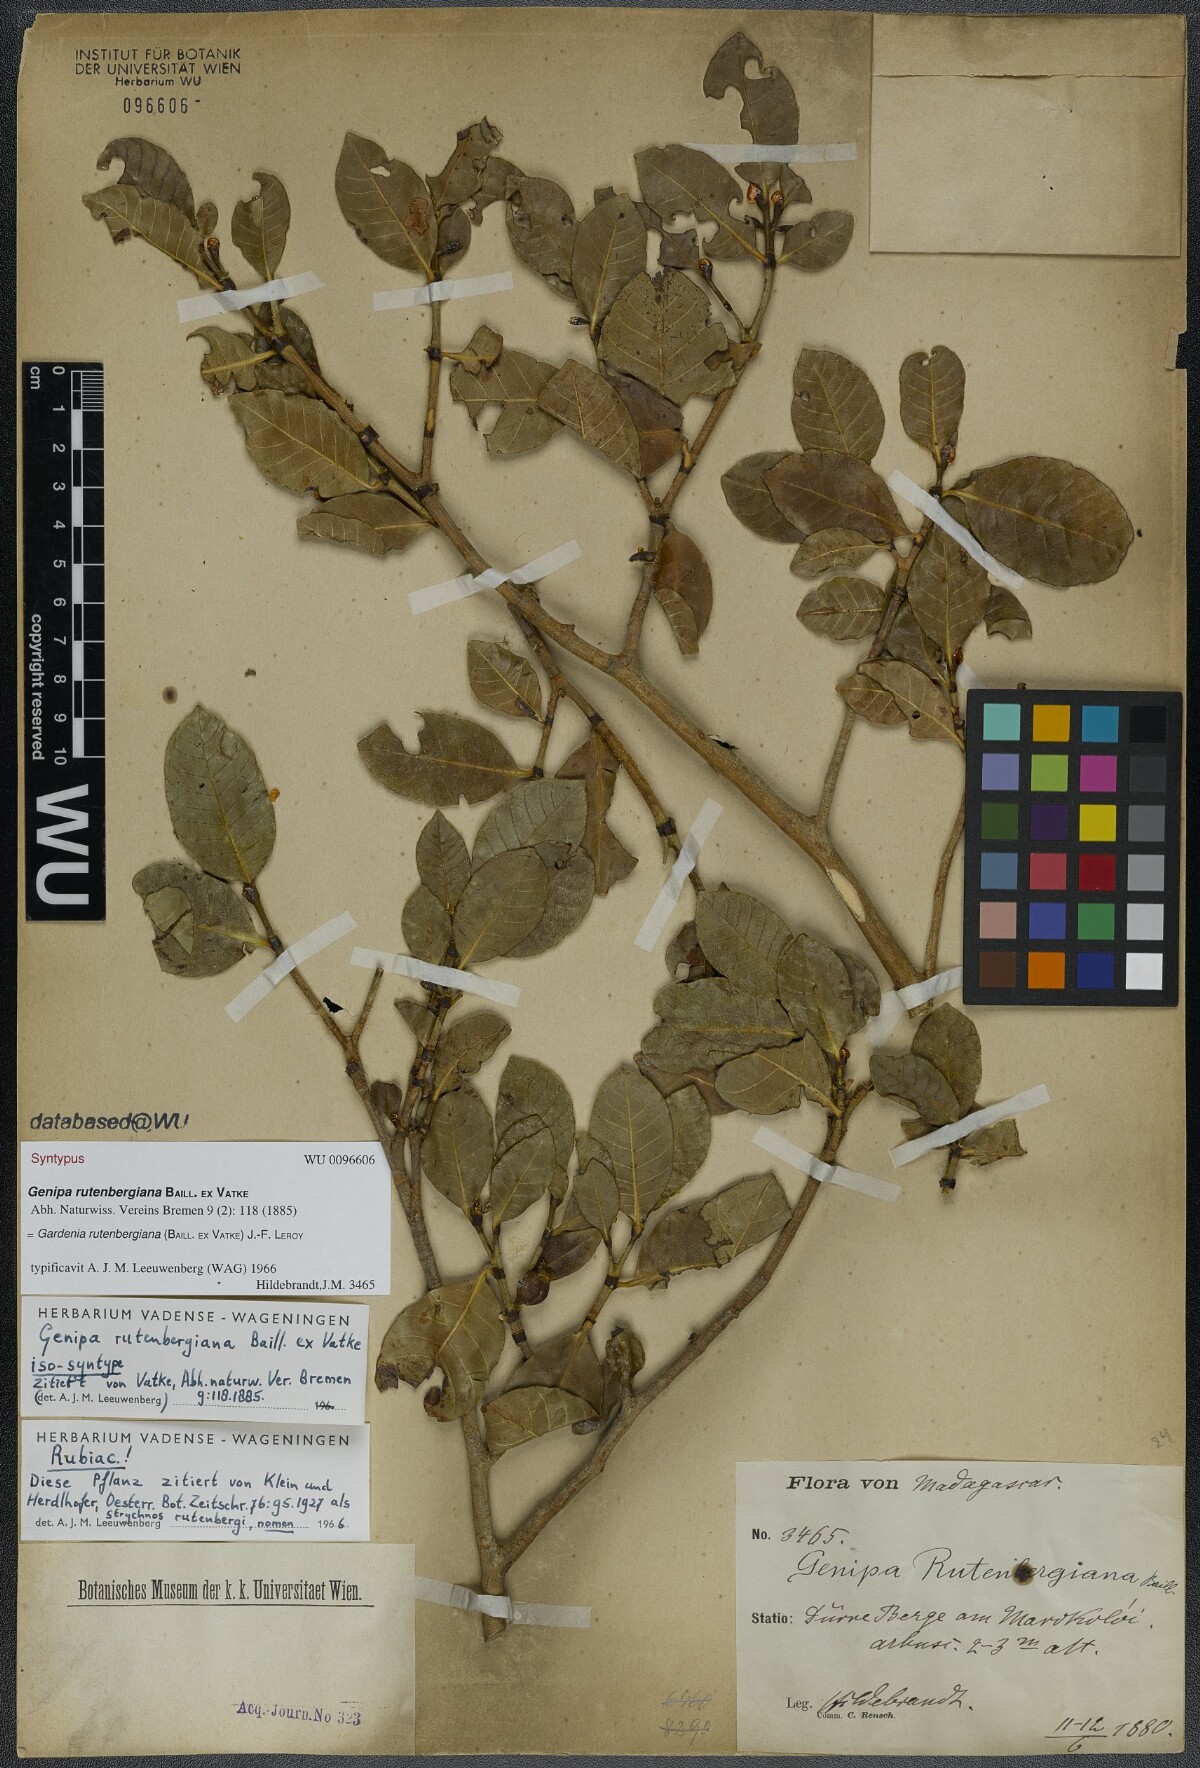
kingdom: Plantae
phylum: Tracheophyta
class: Magnoliopsida
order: Gentianales
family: Rubiaceae
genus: Gardenia
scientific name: Gardenia rutenbergiana
